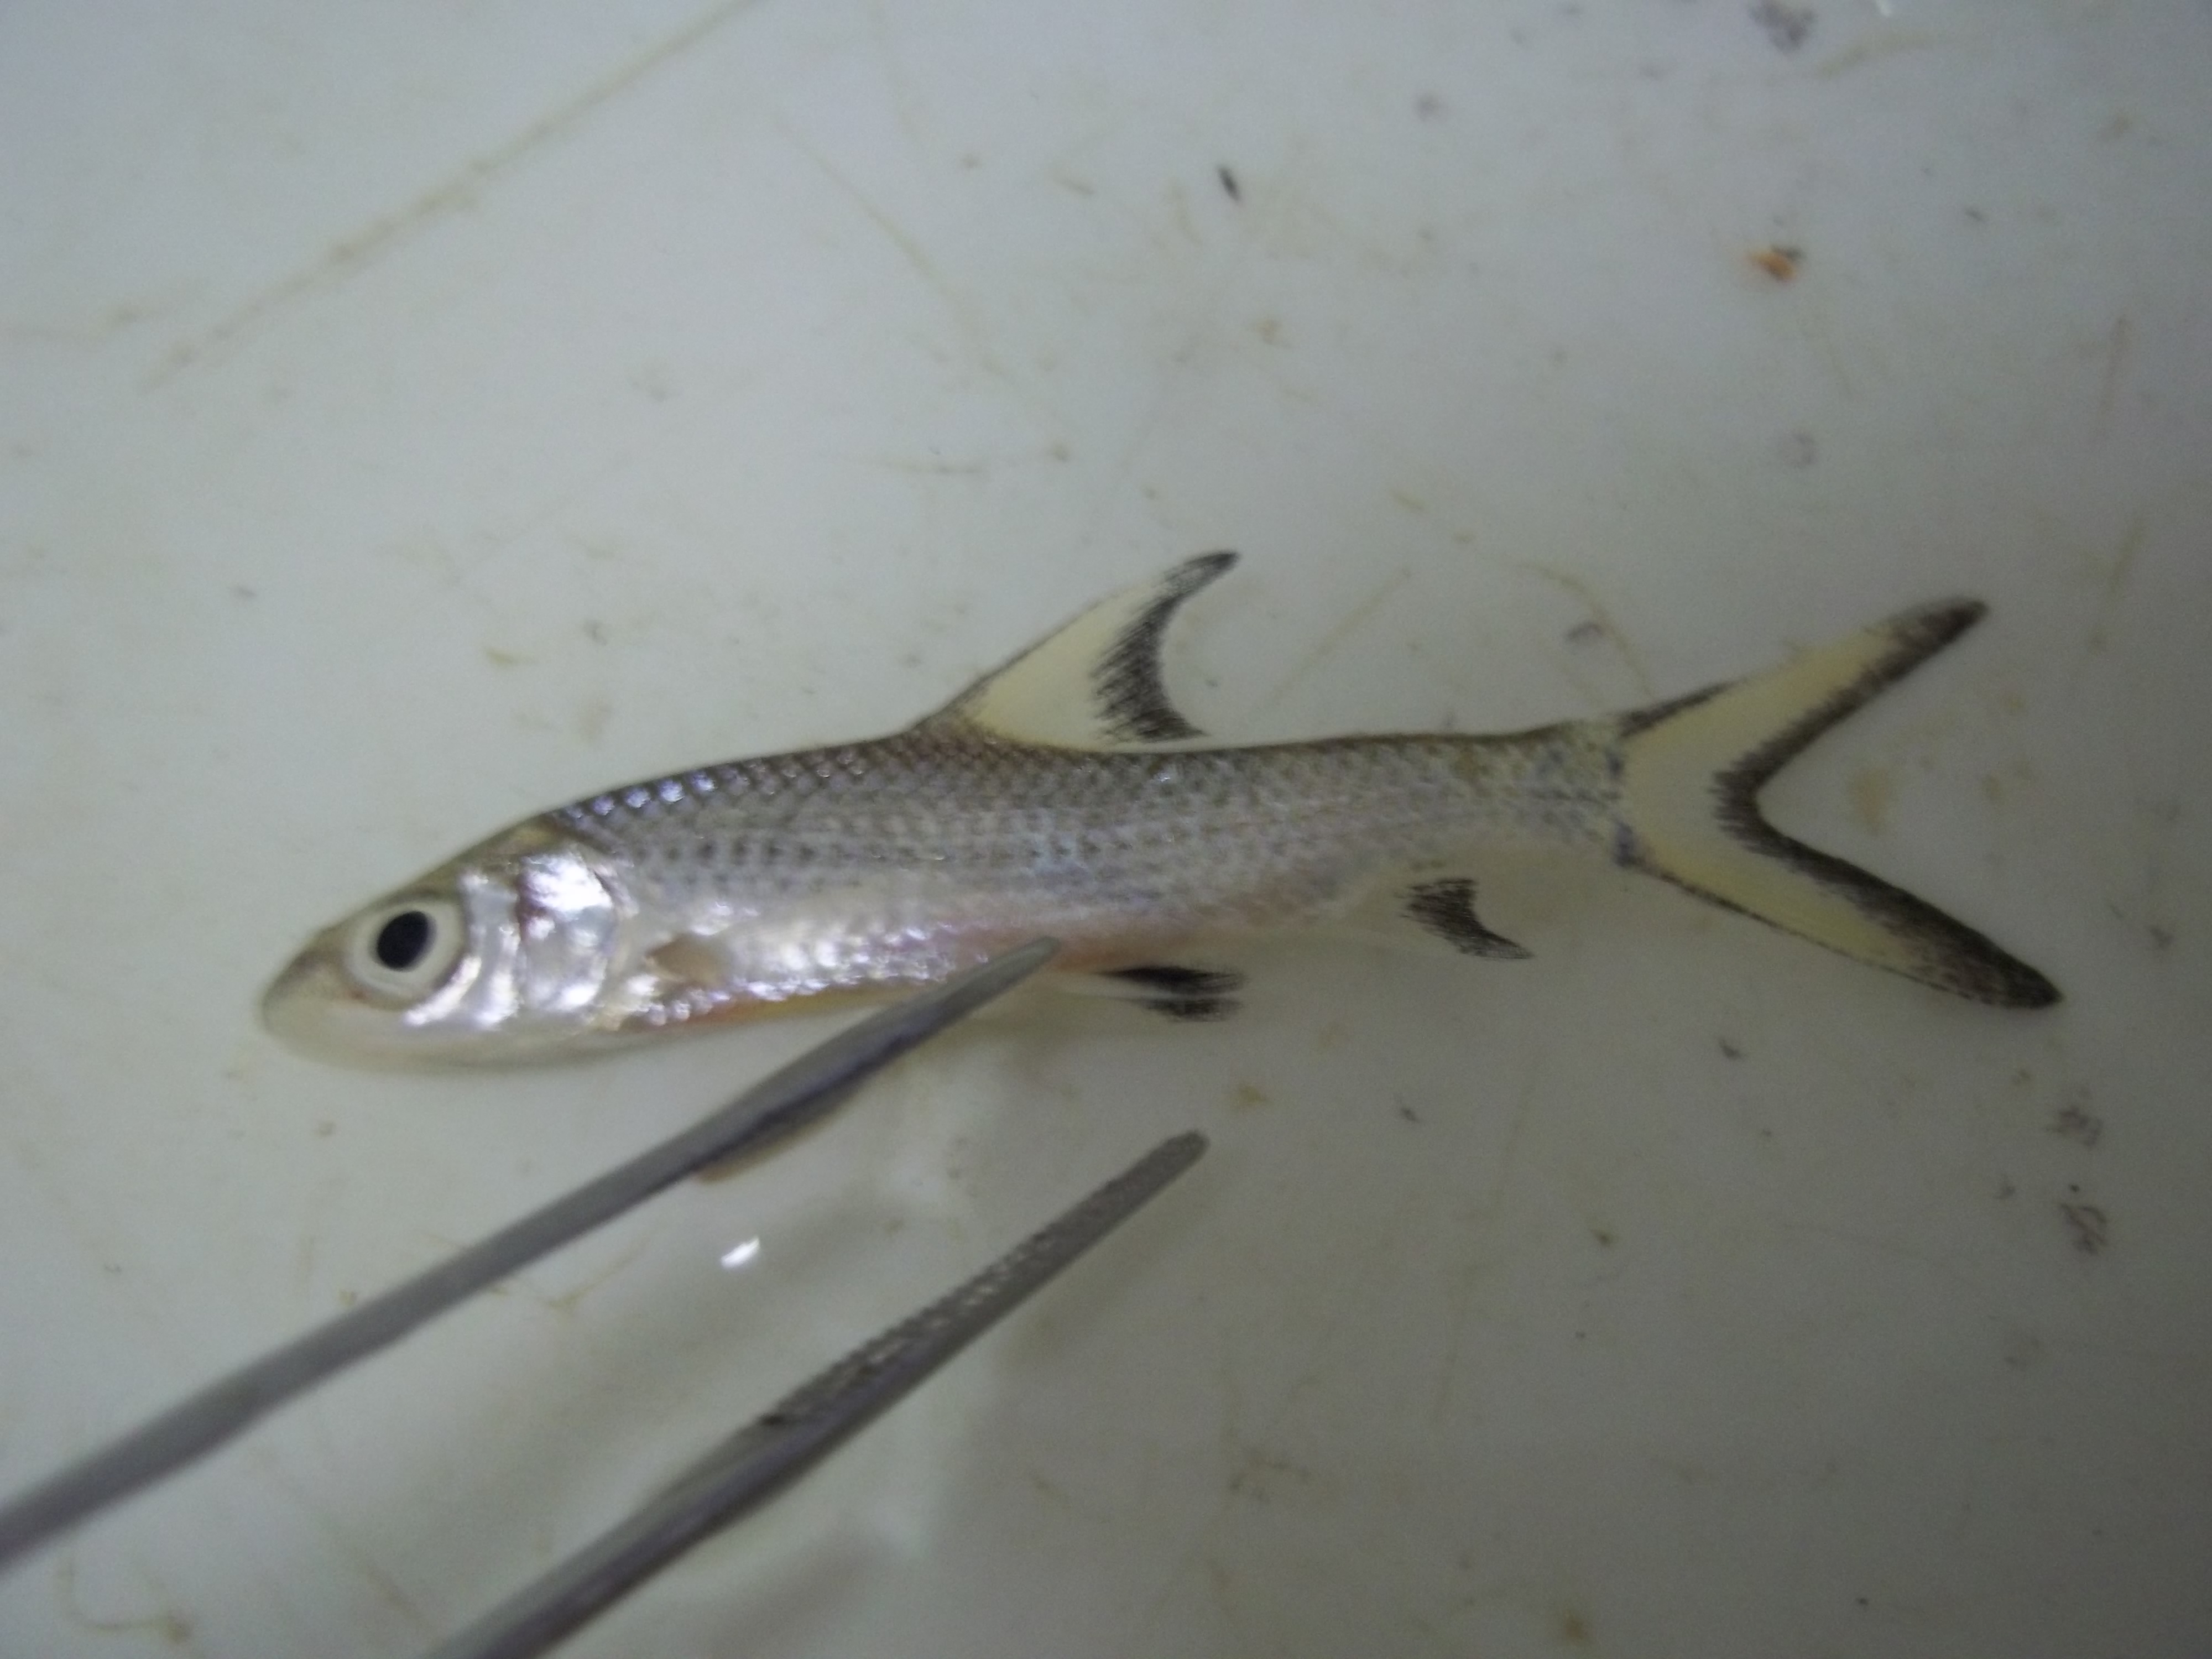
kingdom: Animalia
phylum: Chordata
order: Cypriniformes
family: Cyprinidae
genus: Balantiocheilos
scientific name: Balantiocheilos melanopterus
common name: Bala shark
